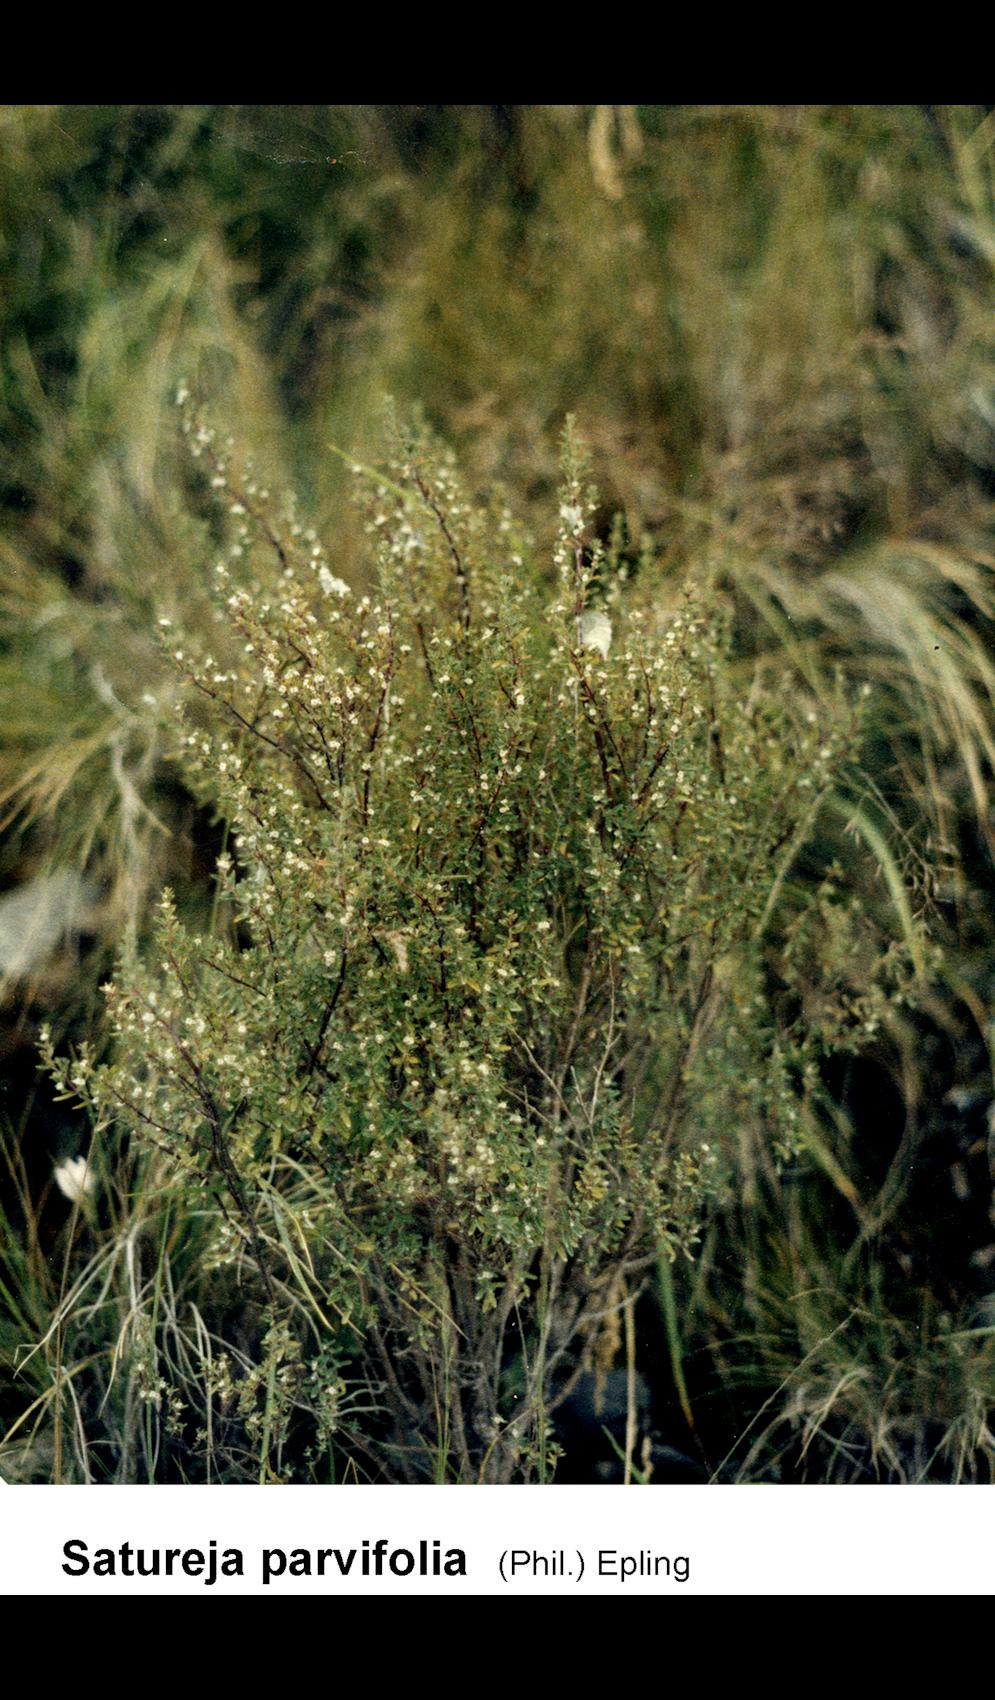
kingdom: Plantae
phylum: Tracheophyta
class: Magnoliopsida
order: Lamiales
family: Lamiaceae
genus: Clinopodium
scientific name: Clinopodium gilliesii
